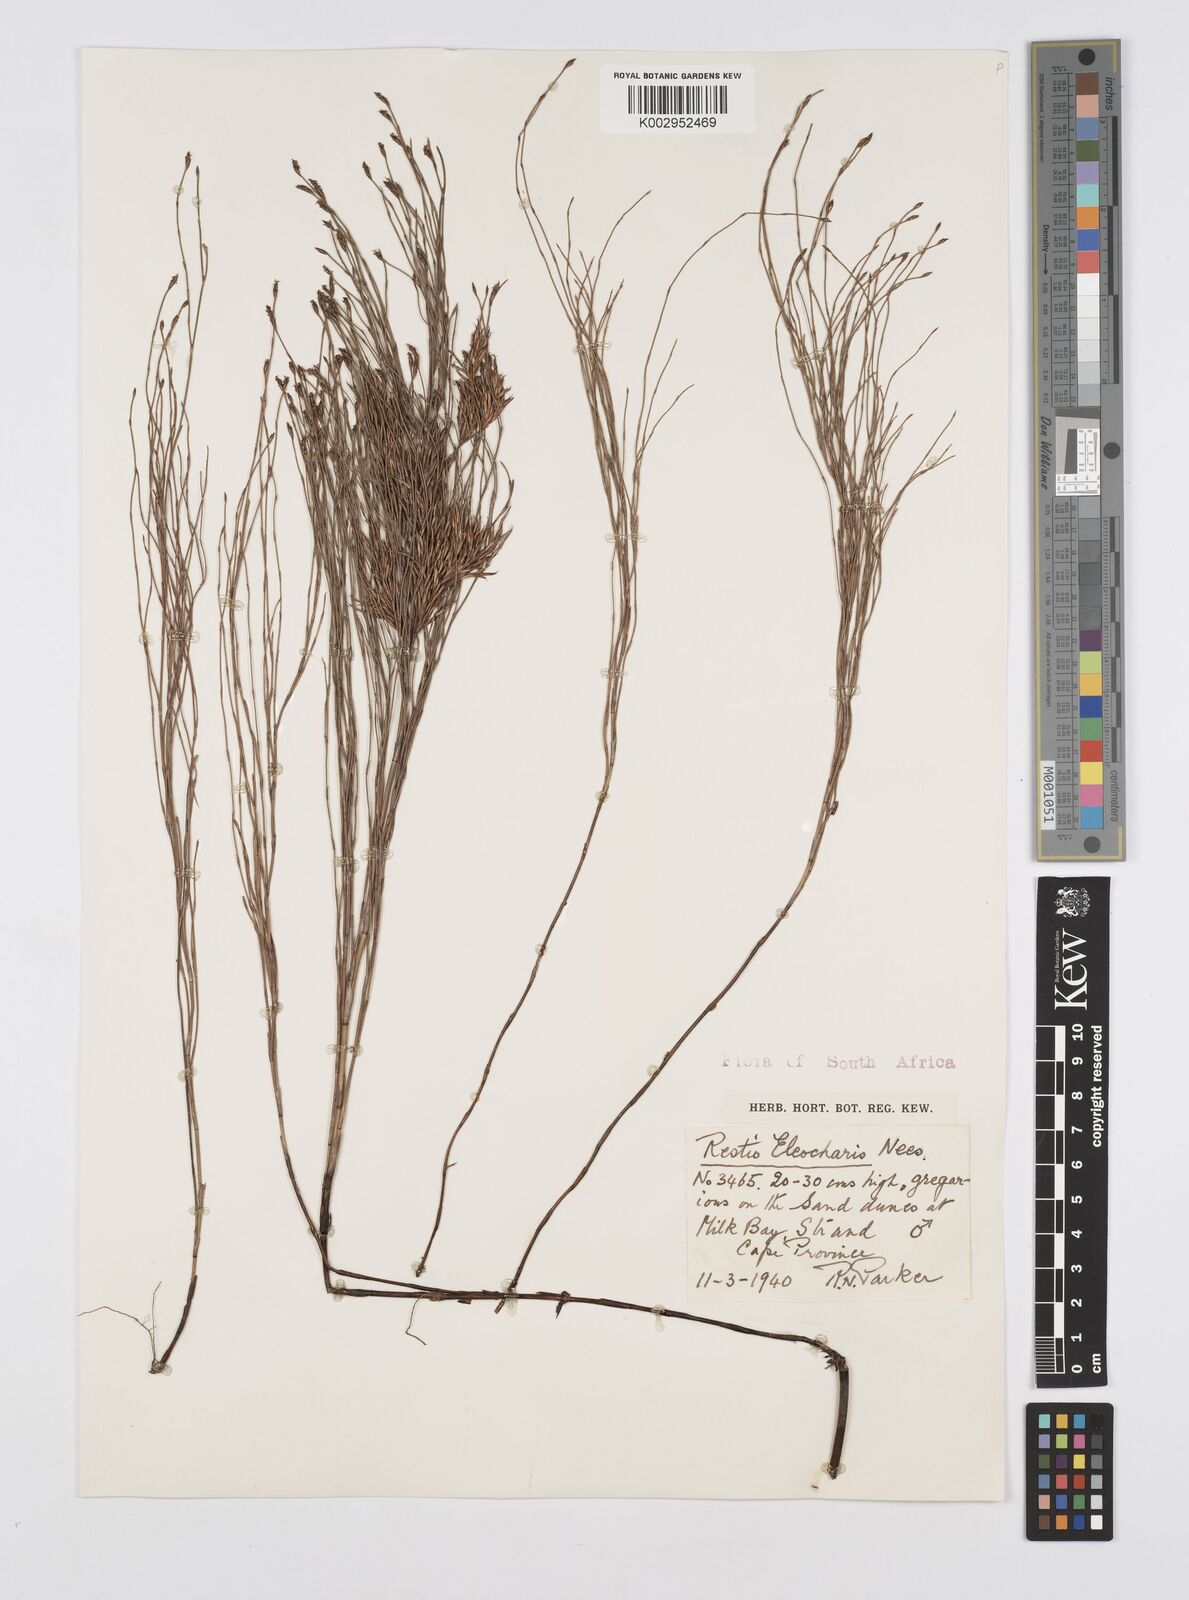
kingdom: Plantae
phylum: Tracheophyta
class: Liliopsida
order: Poales
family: Restionaceae
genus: Restio
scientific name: Restio eleocharis
